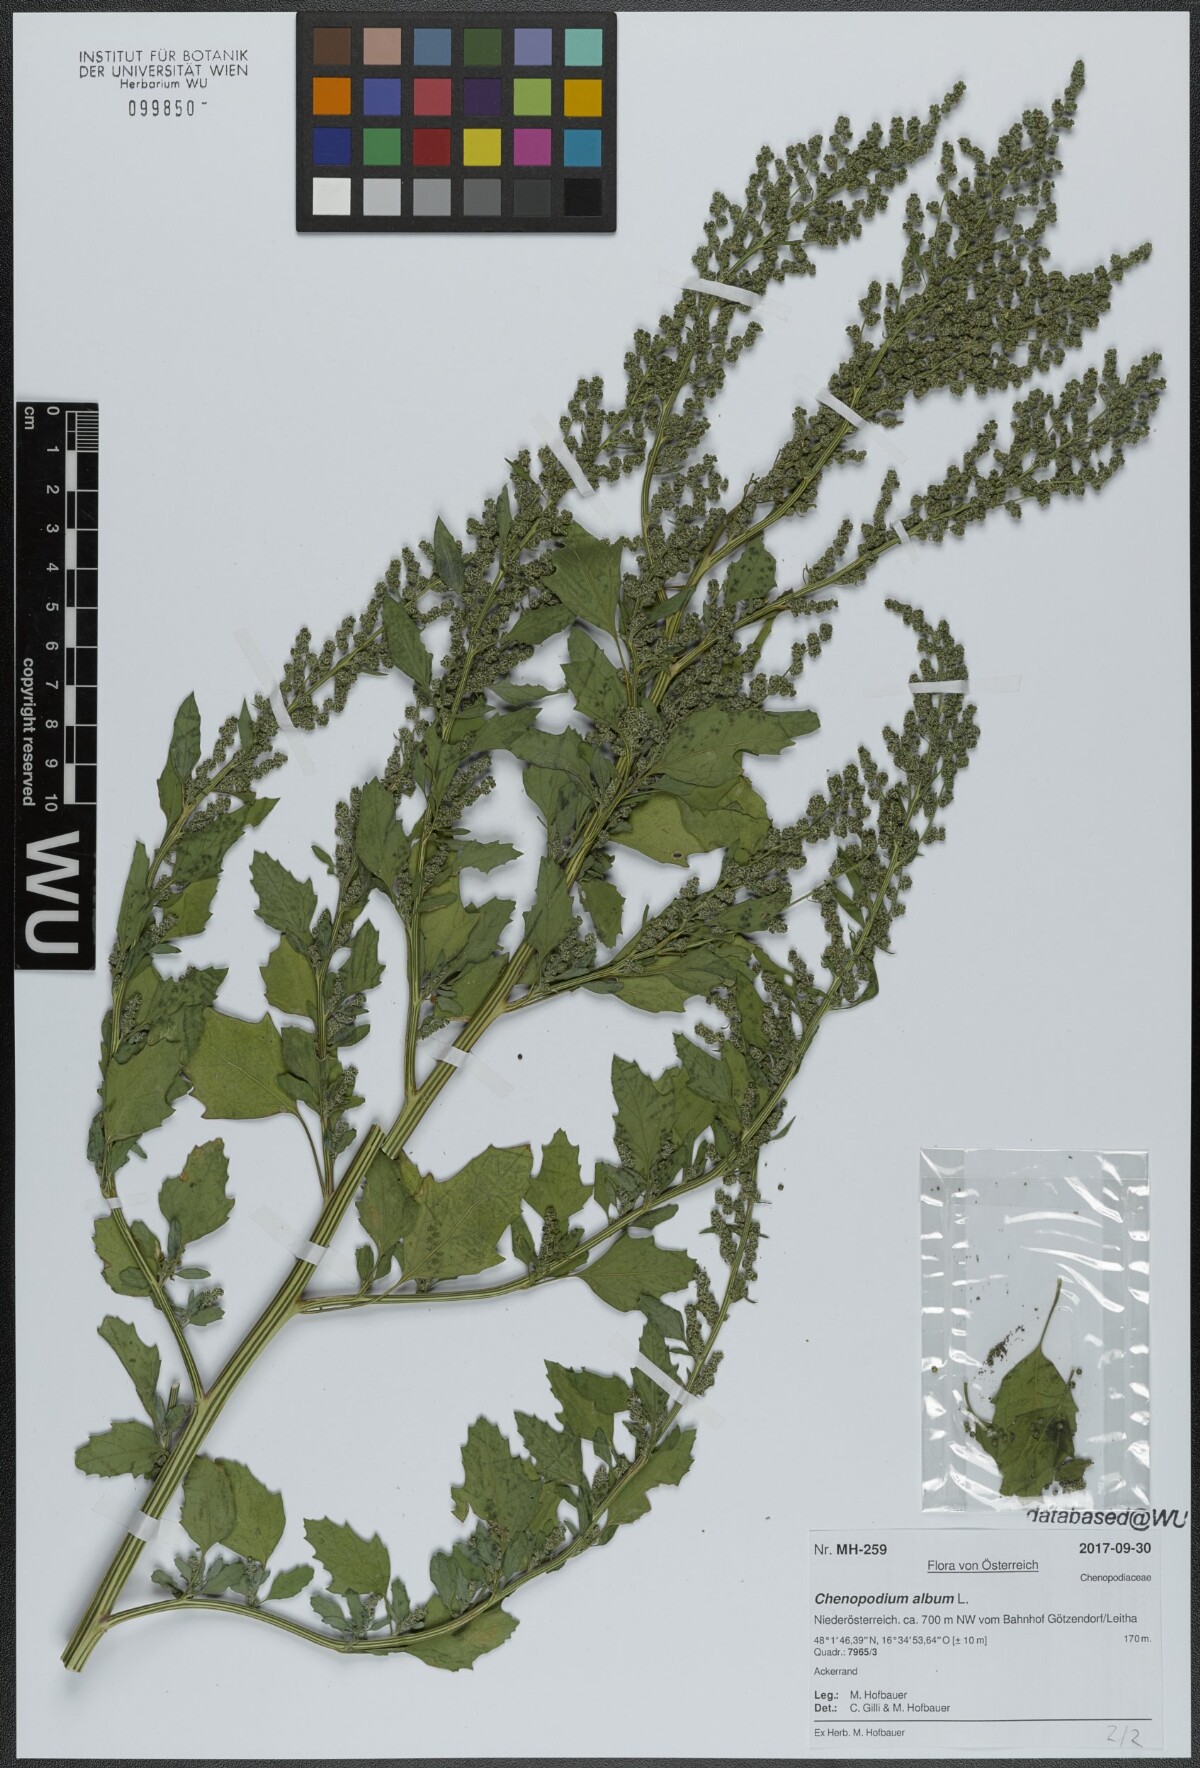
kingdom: Plantae
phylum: Tracheophyta
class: Magnoliopsida
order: Caryophyllales
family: Amaranthaceae
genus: Chenopodium
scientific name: Chenopodium album
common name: Fat-hen
